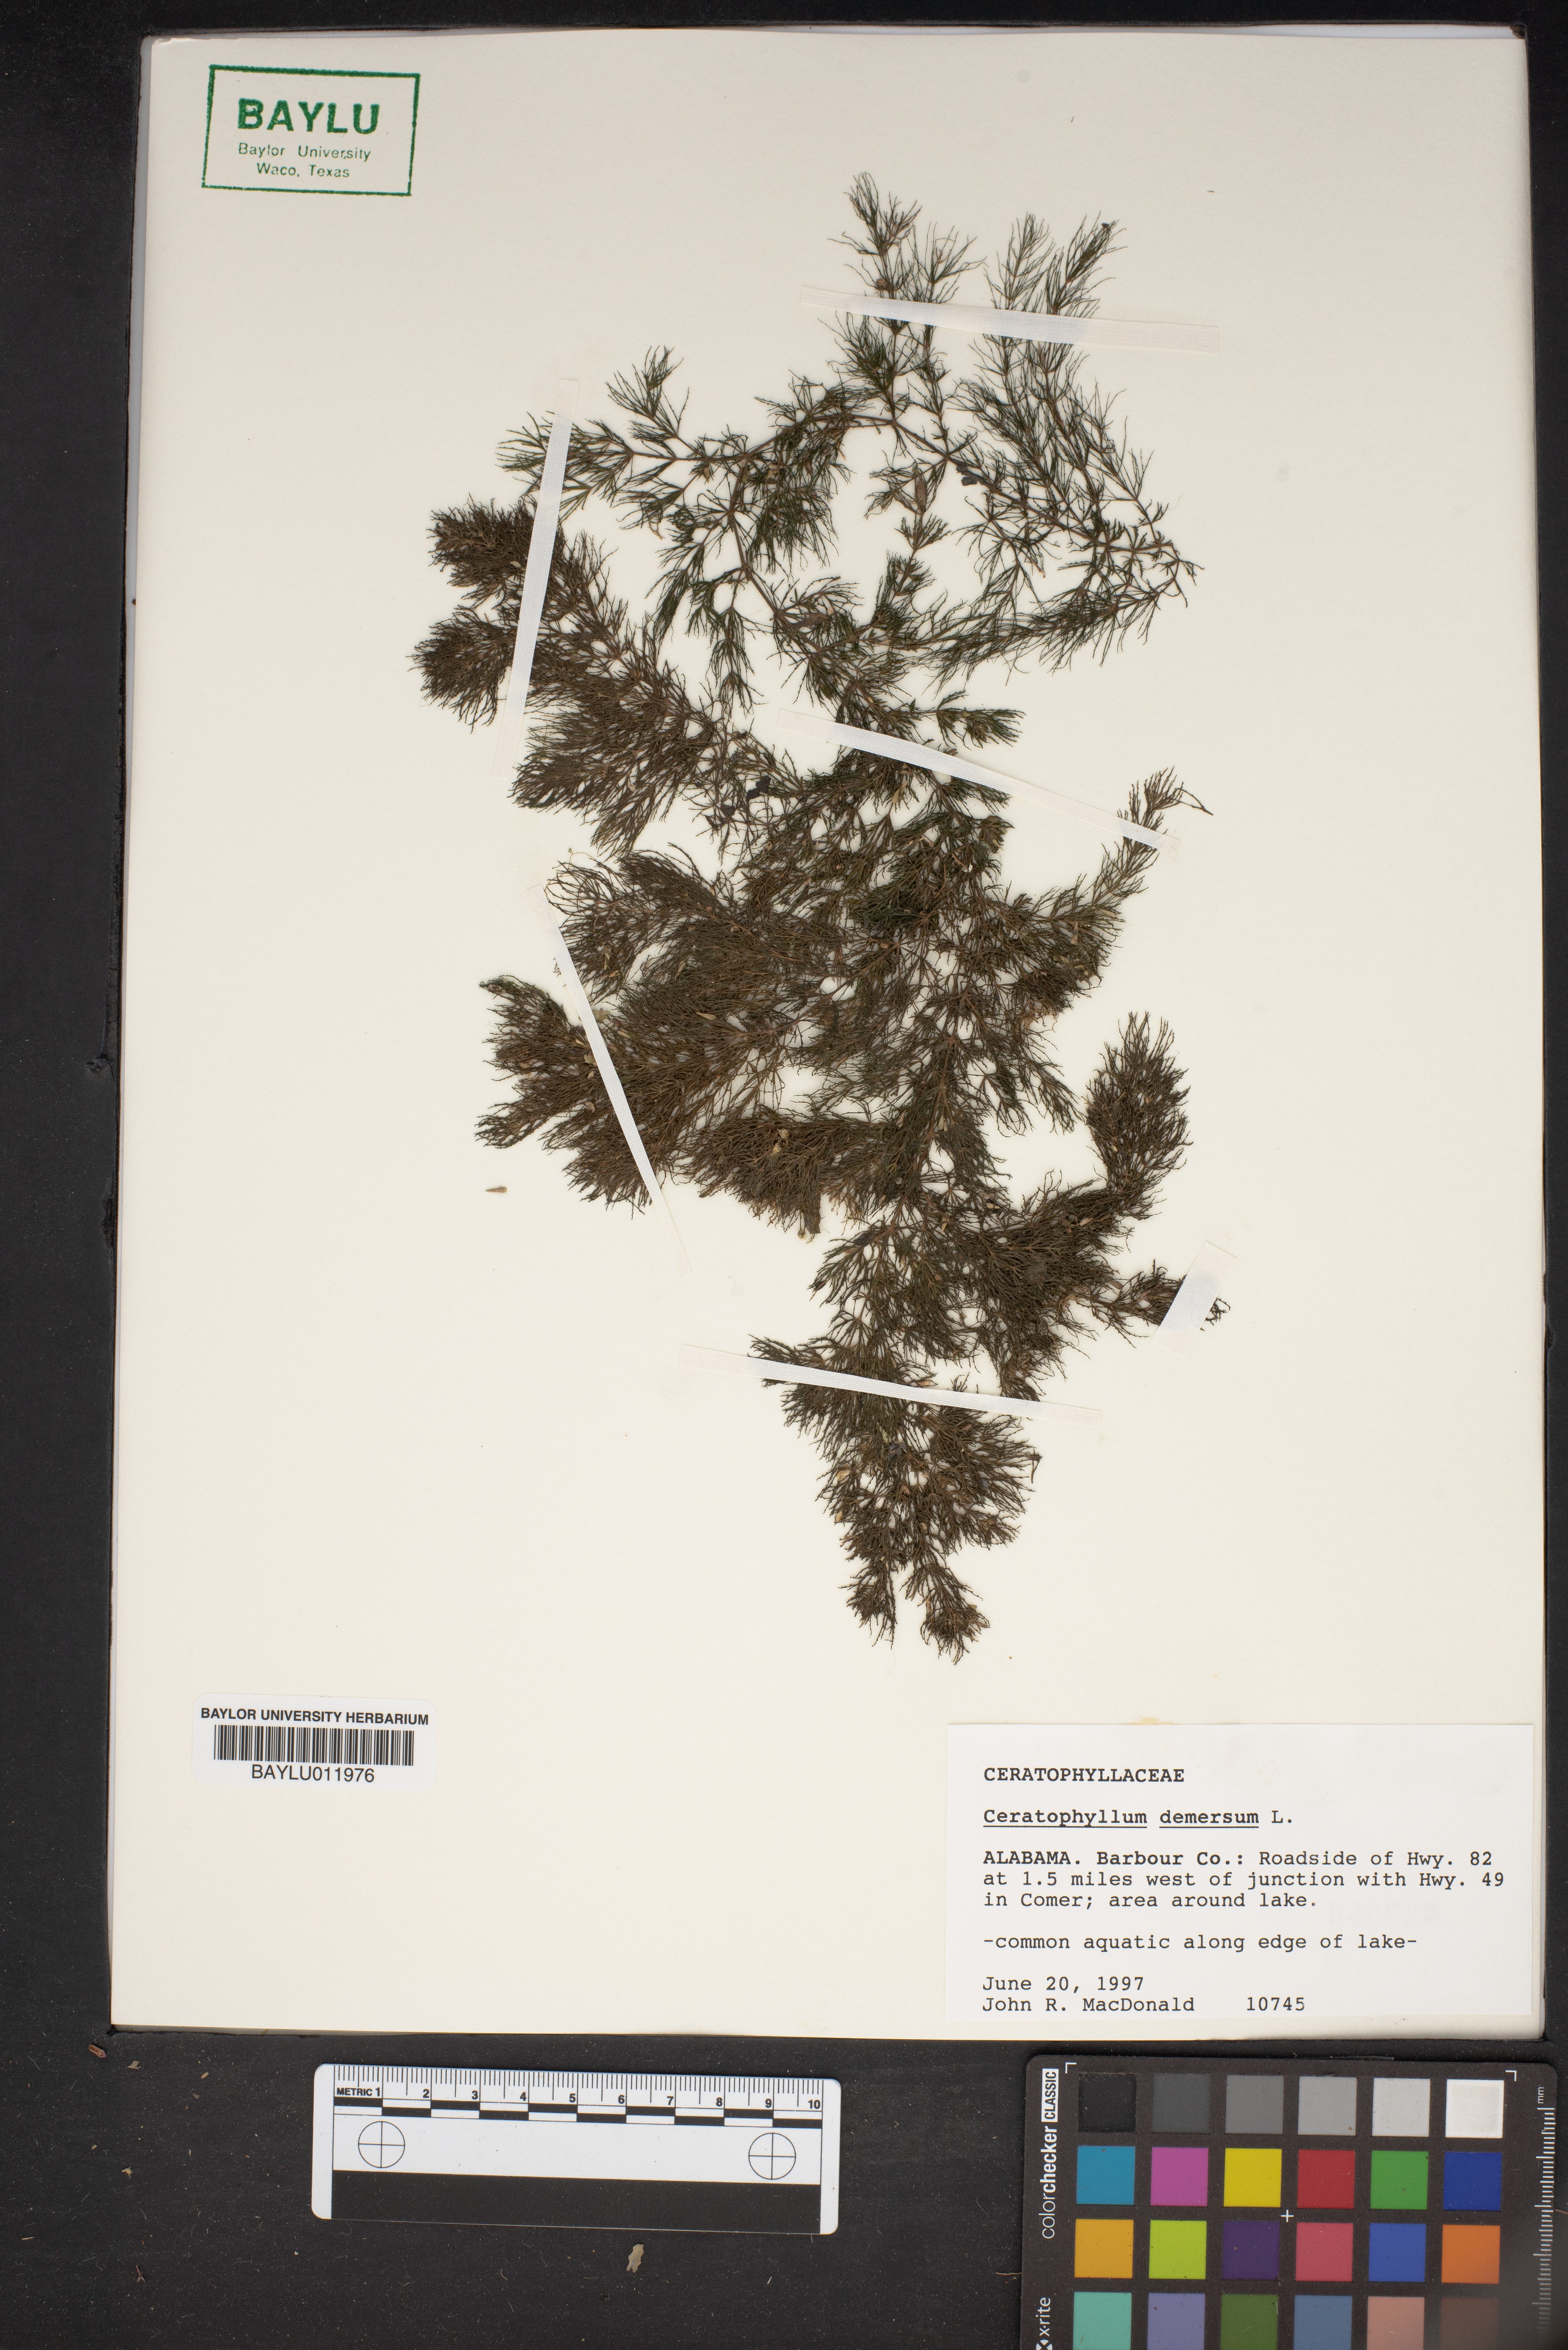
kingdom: Plantae
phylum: Tracheophyta
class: Magnoliopsida
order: Ceratophyllales
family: Ceratophyllaceae
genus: Ceratophyllum
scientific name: Ceratophyllum demersum
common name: Rigid hornwort
